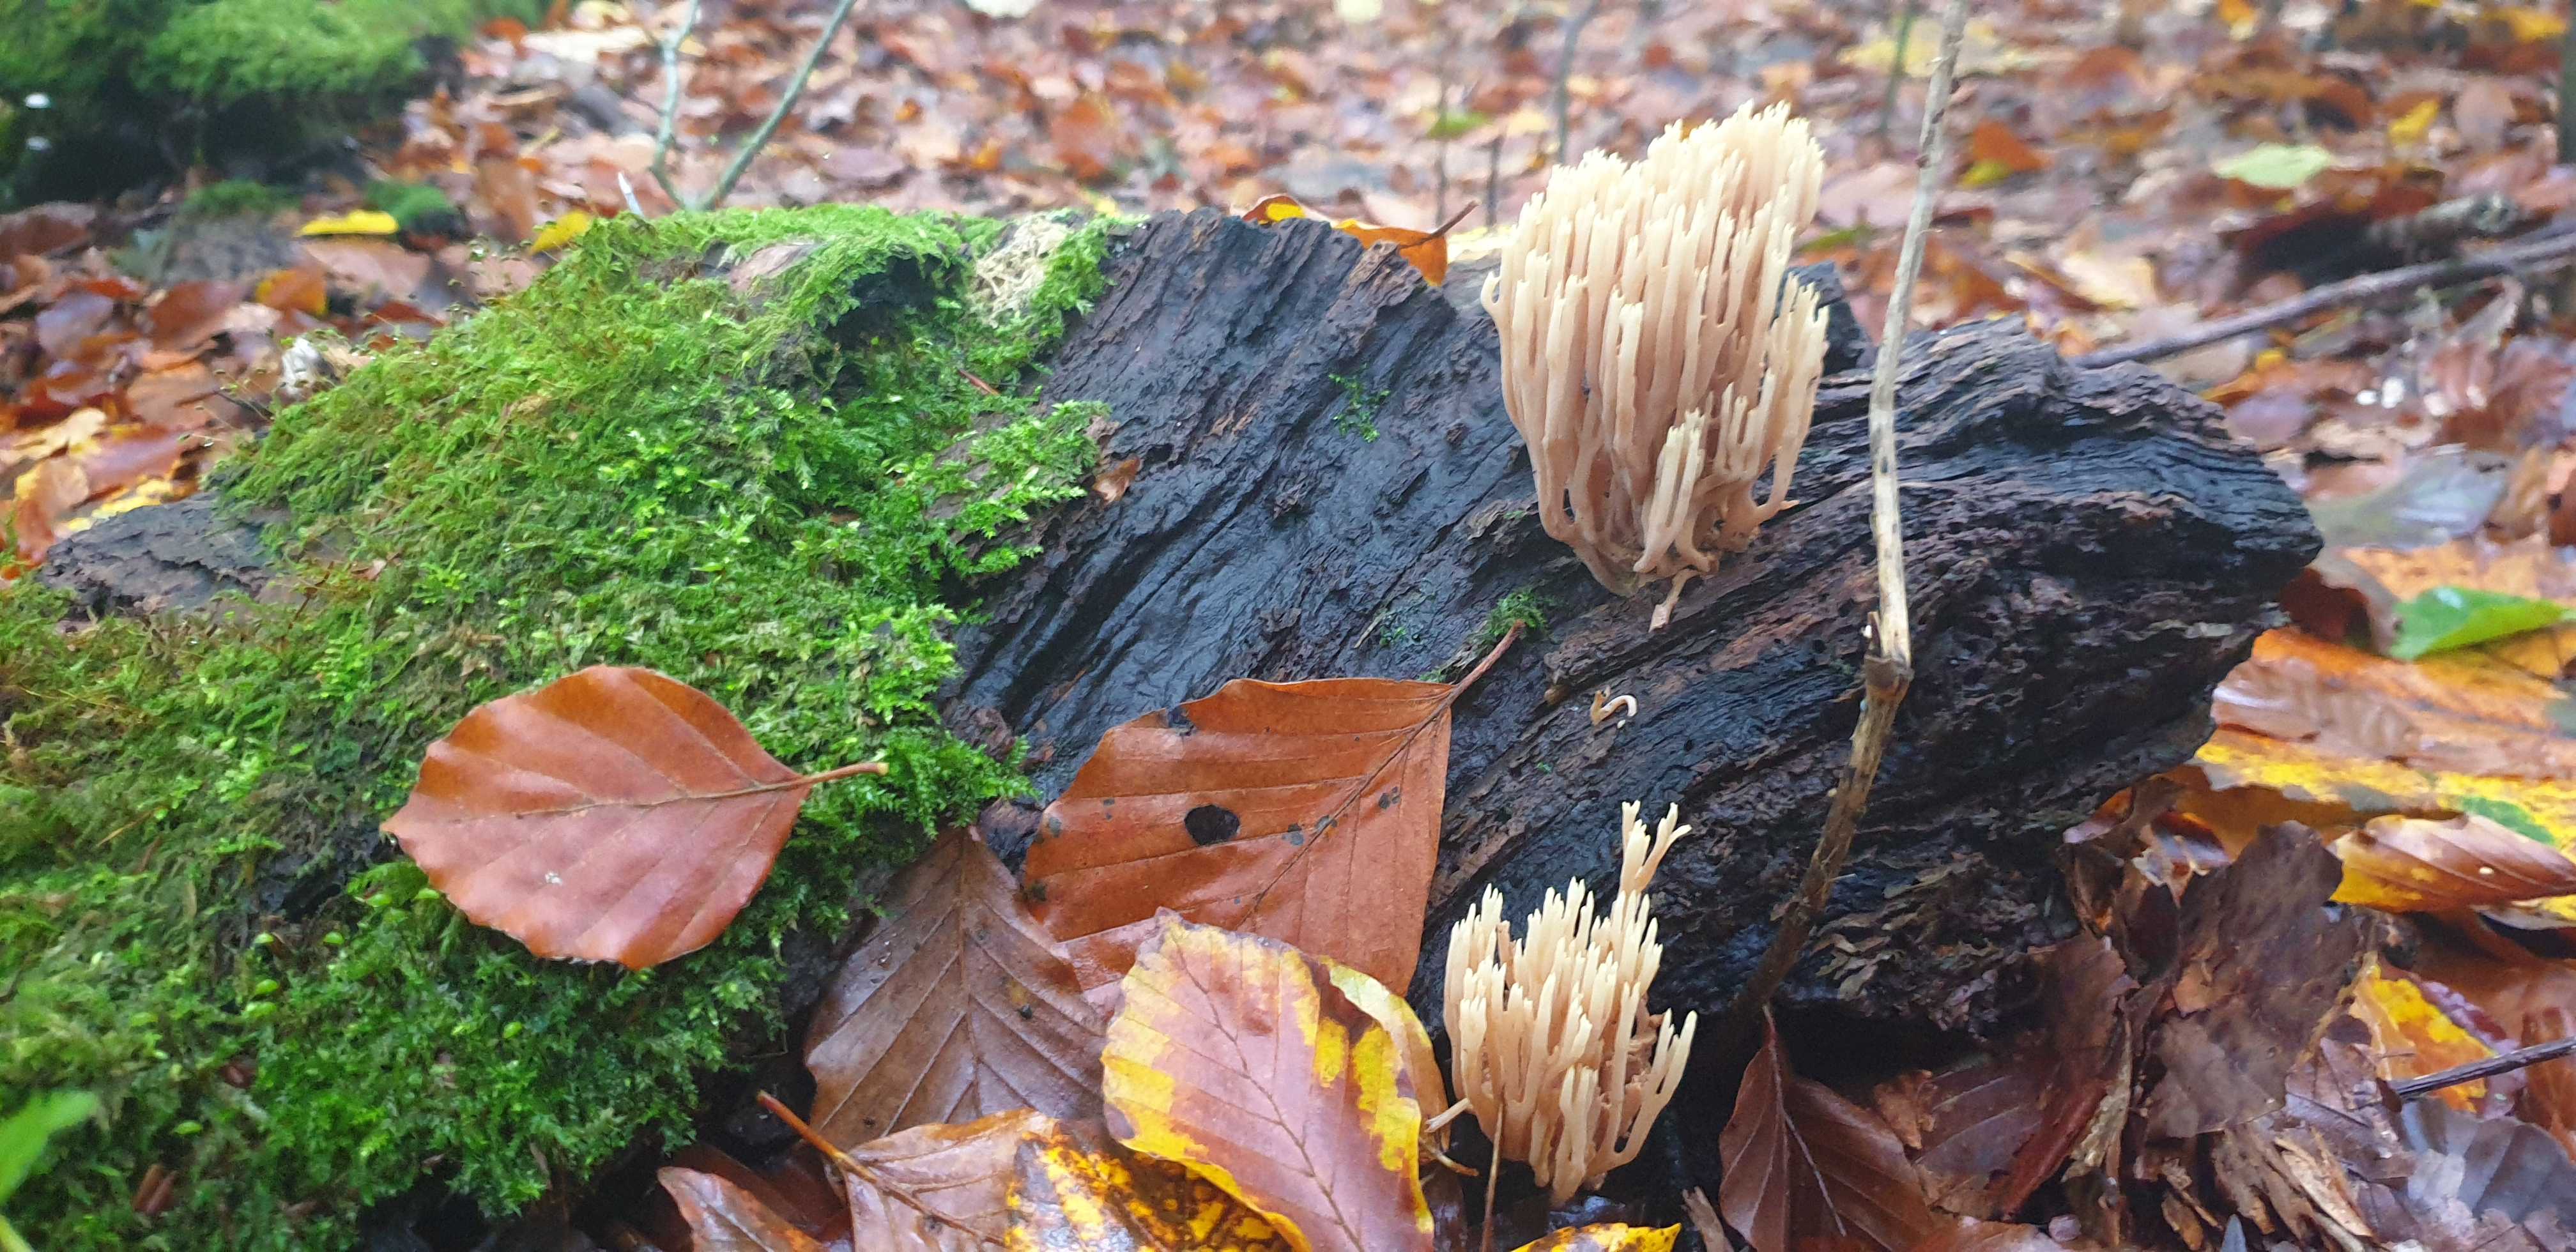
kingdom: Fungi
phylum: Basidiomycota
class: Agaricomycetes
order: Gomphales
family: Gomphaceae
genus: Ramaria
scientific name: Ramaria stricta
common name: rank koralsvamp
